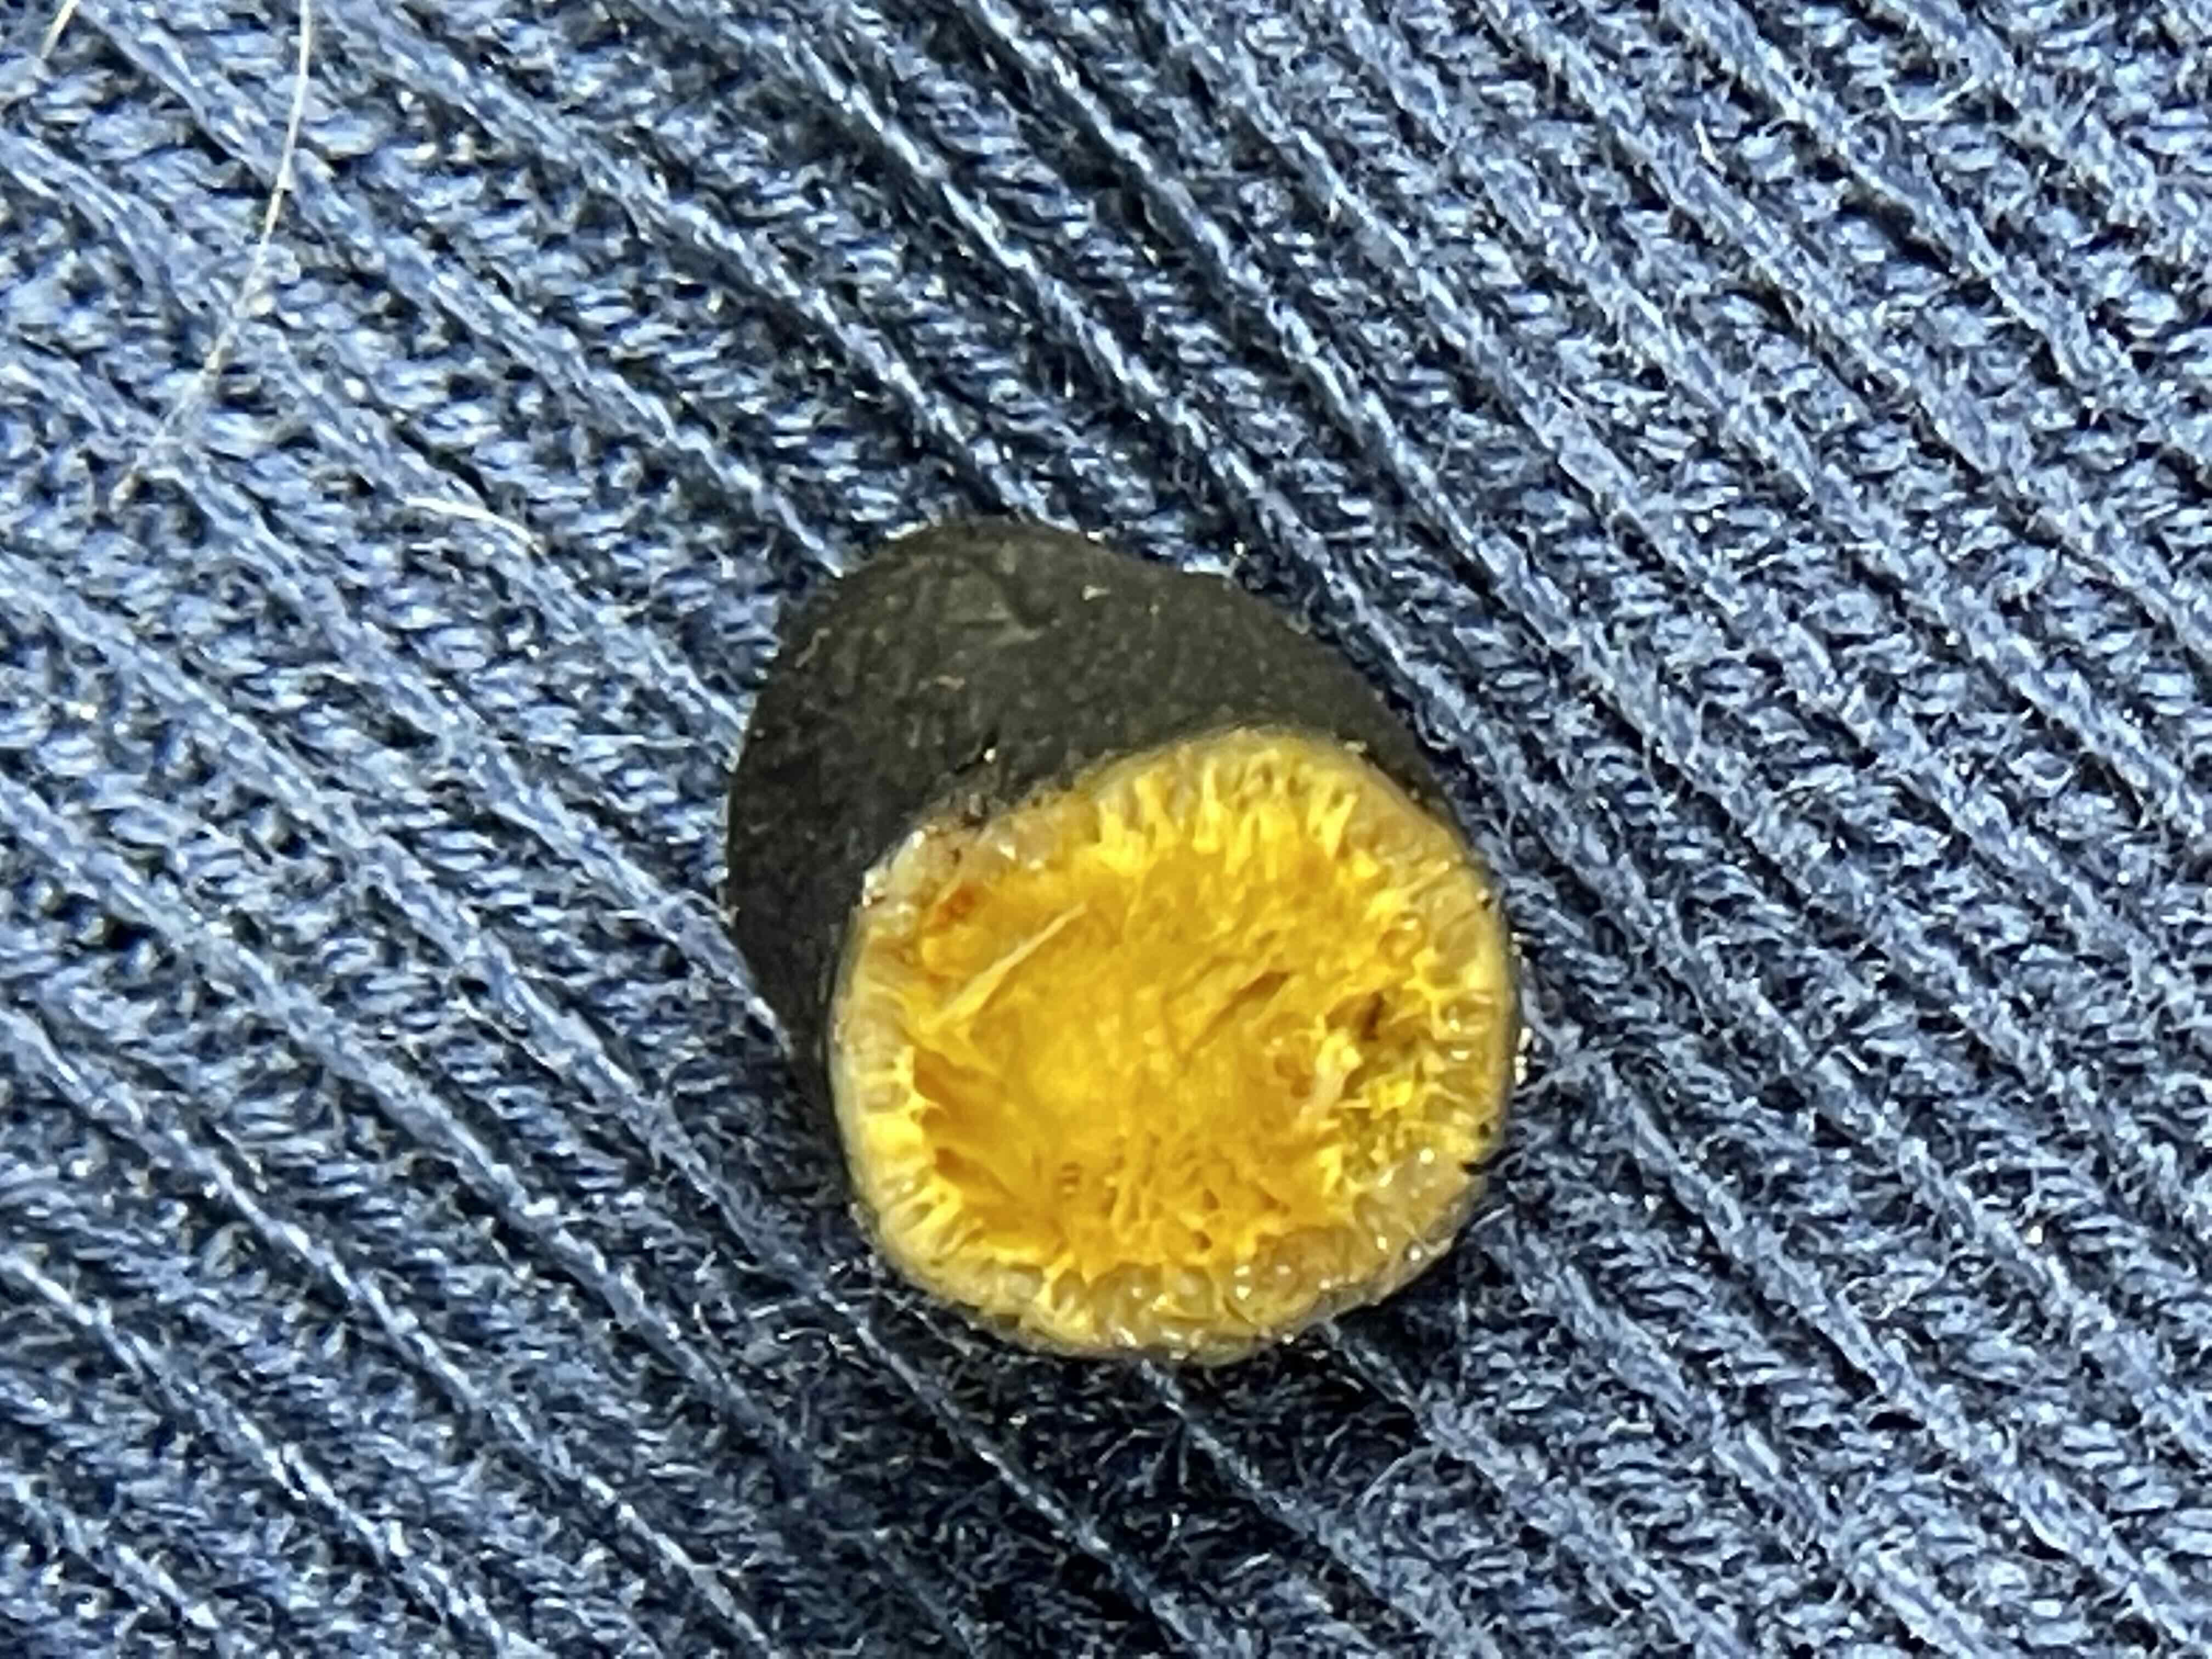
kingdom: Fungi
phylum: Ascomycota
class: Sordariomycetes
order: Hypocreales
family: Ophiocordycipitaceae
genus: Tolypocladium
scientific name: Tolypocladium ophioglossoides
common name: slank snyltekølle
